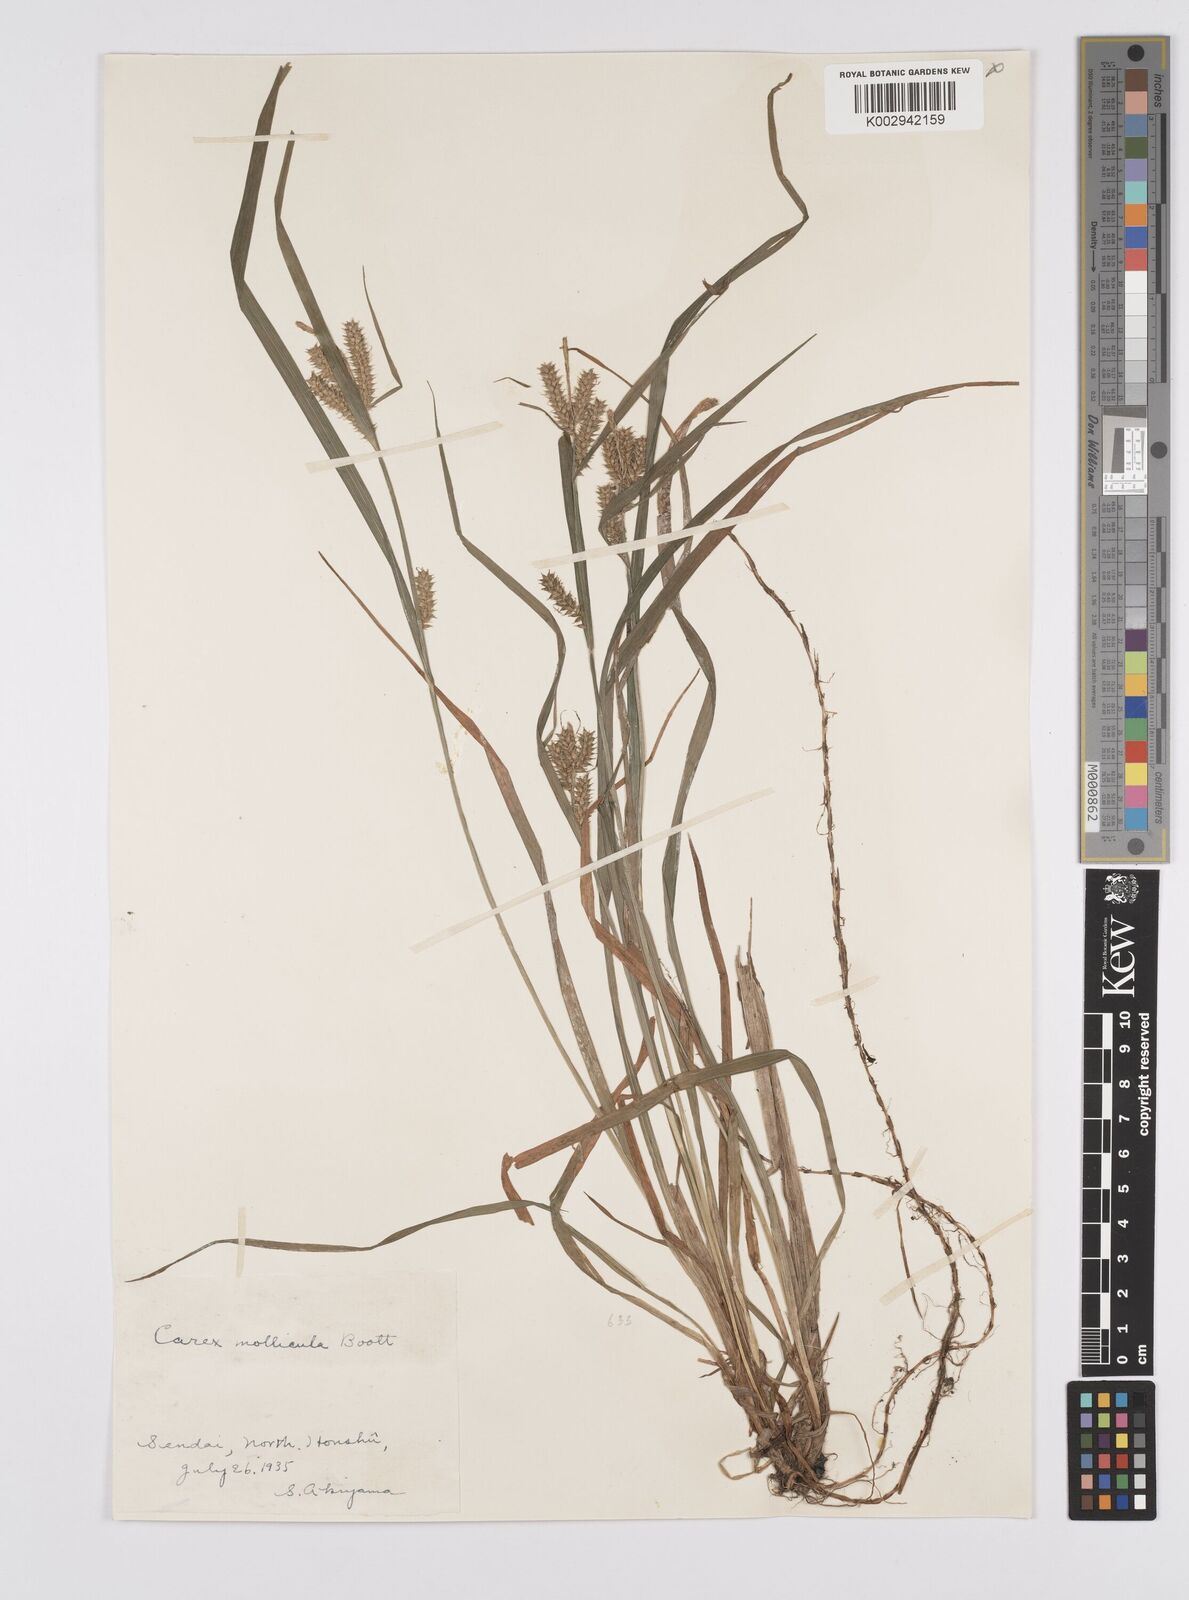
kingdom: Plantae
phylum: Tracheophyta
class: Liliopsida
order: Poales
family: Cyperaceae
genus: Carex
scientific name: Carex mollicula
